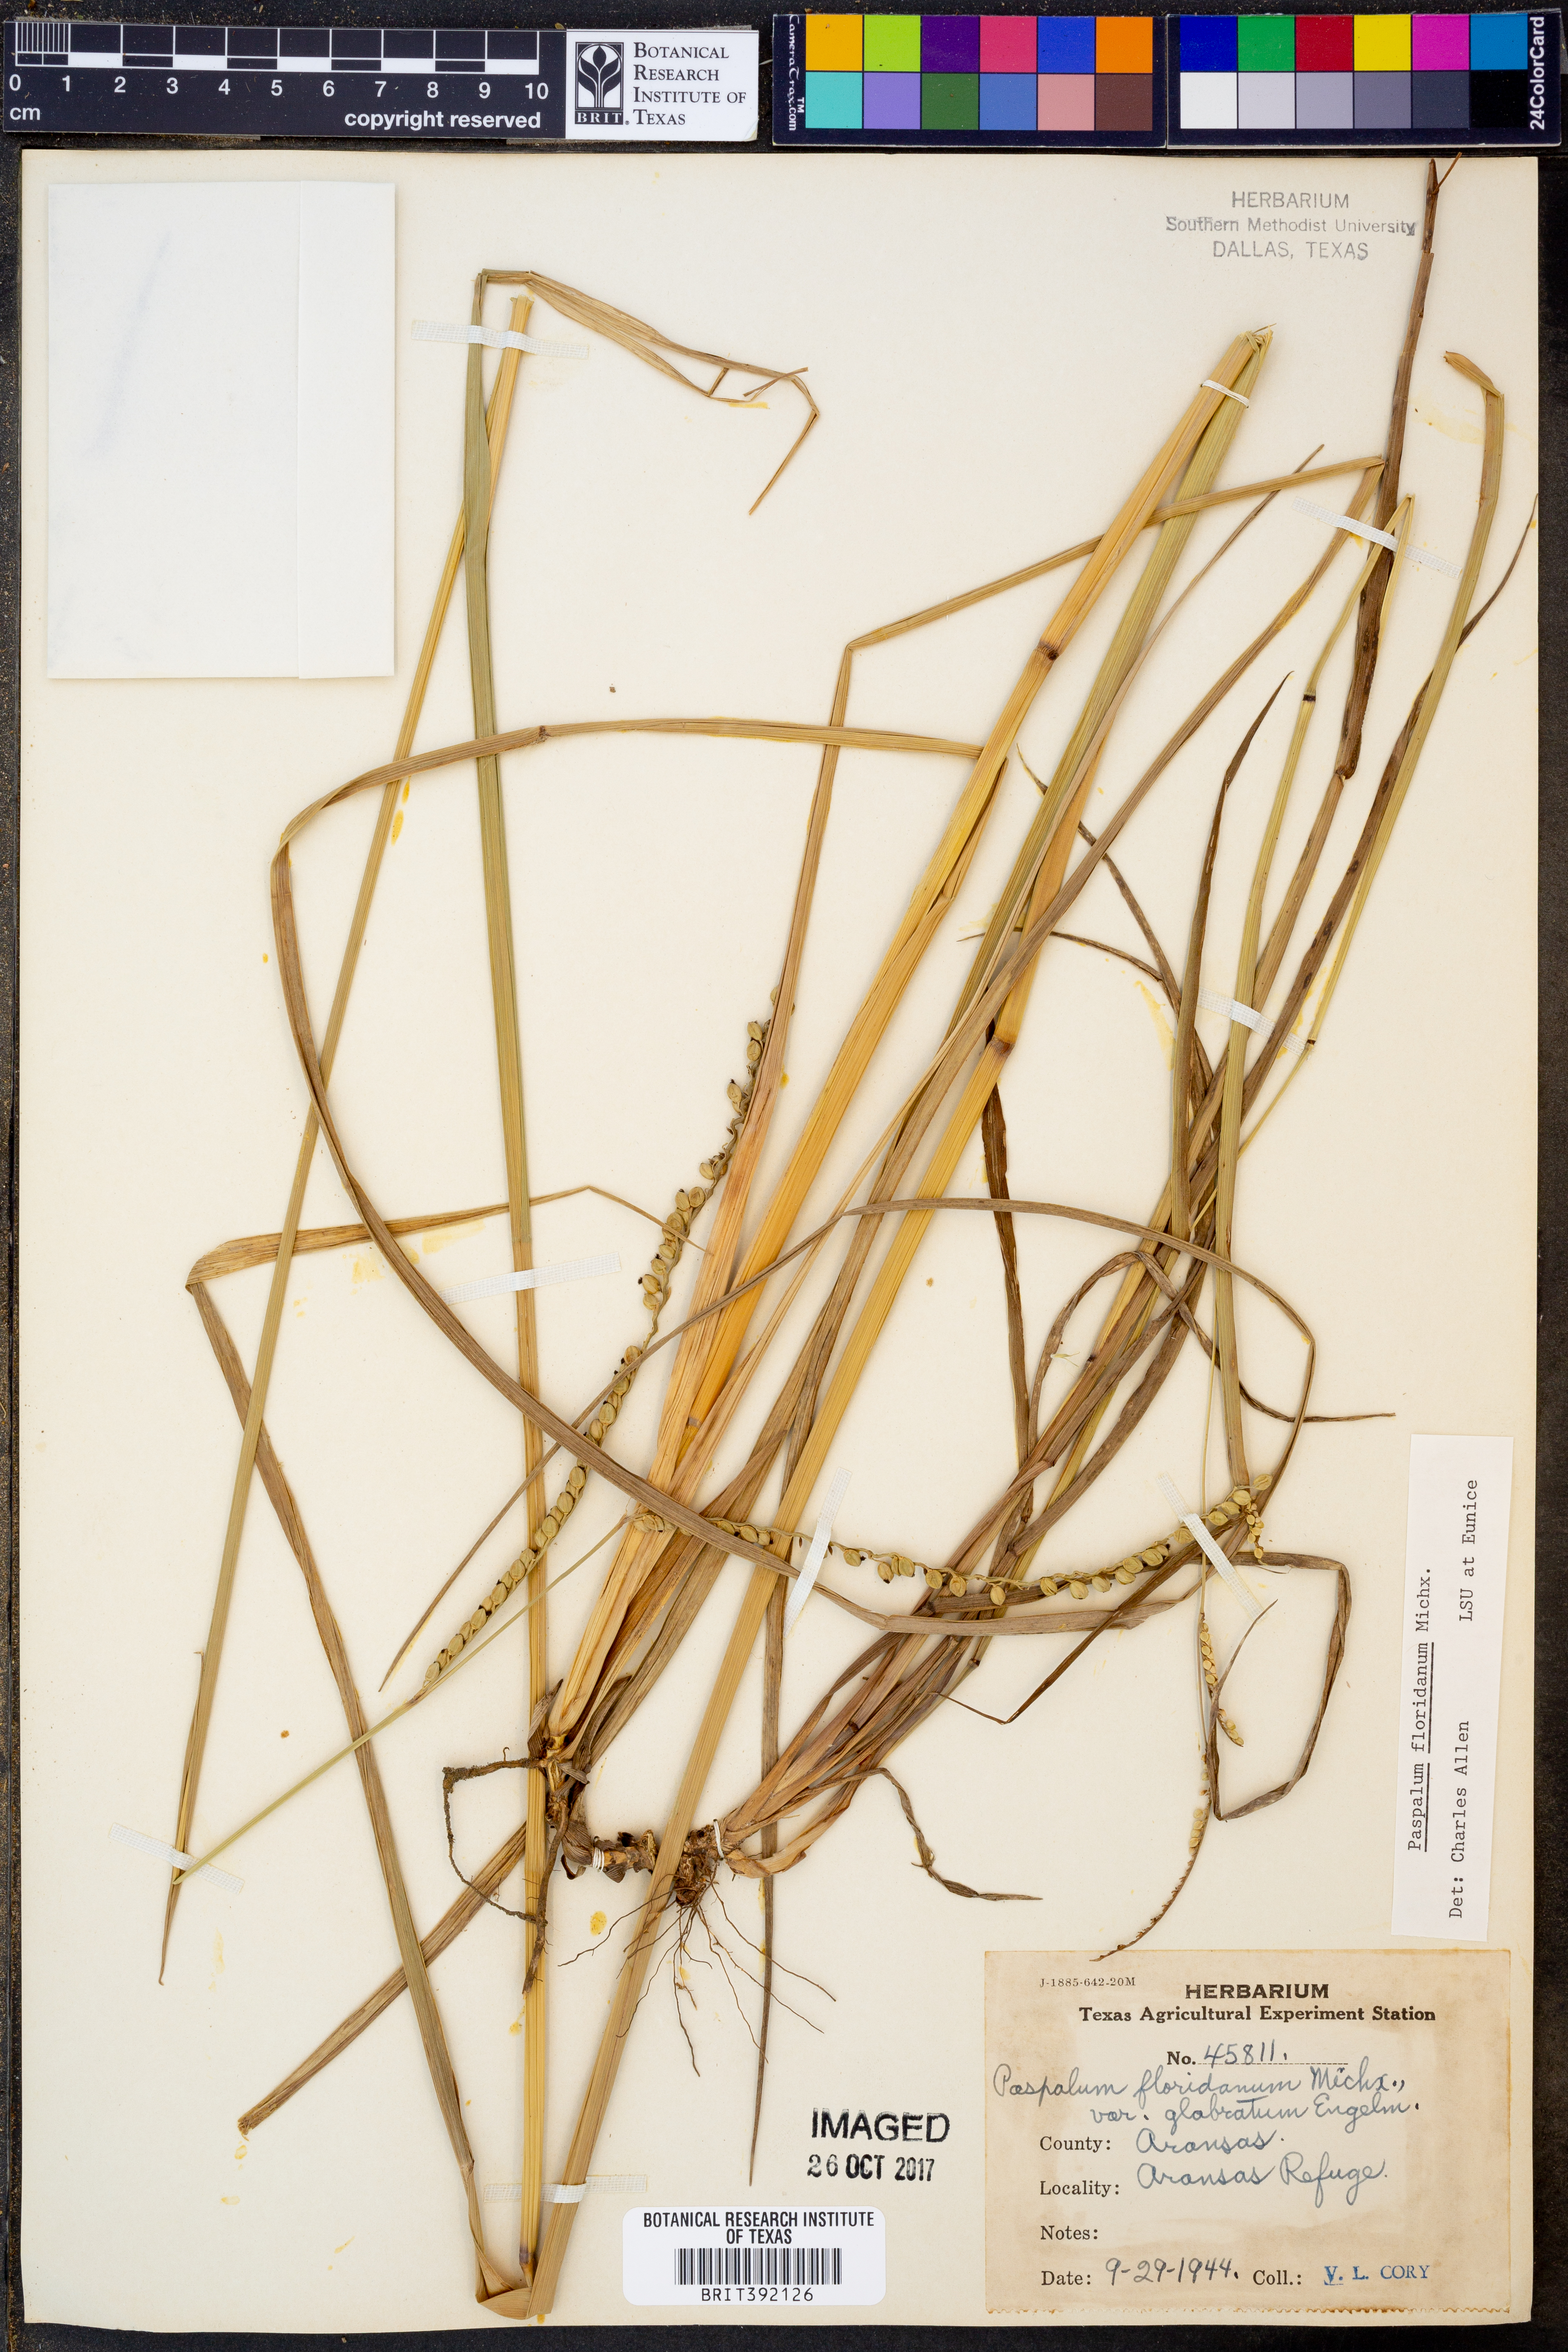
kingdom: Plantae
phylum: Tracheophyta
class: Liliopsida
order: Poales
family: Poaceae
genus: Paspalum
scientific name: Paspalum floridanum
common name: Florida paspalum
